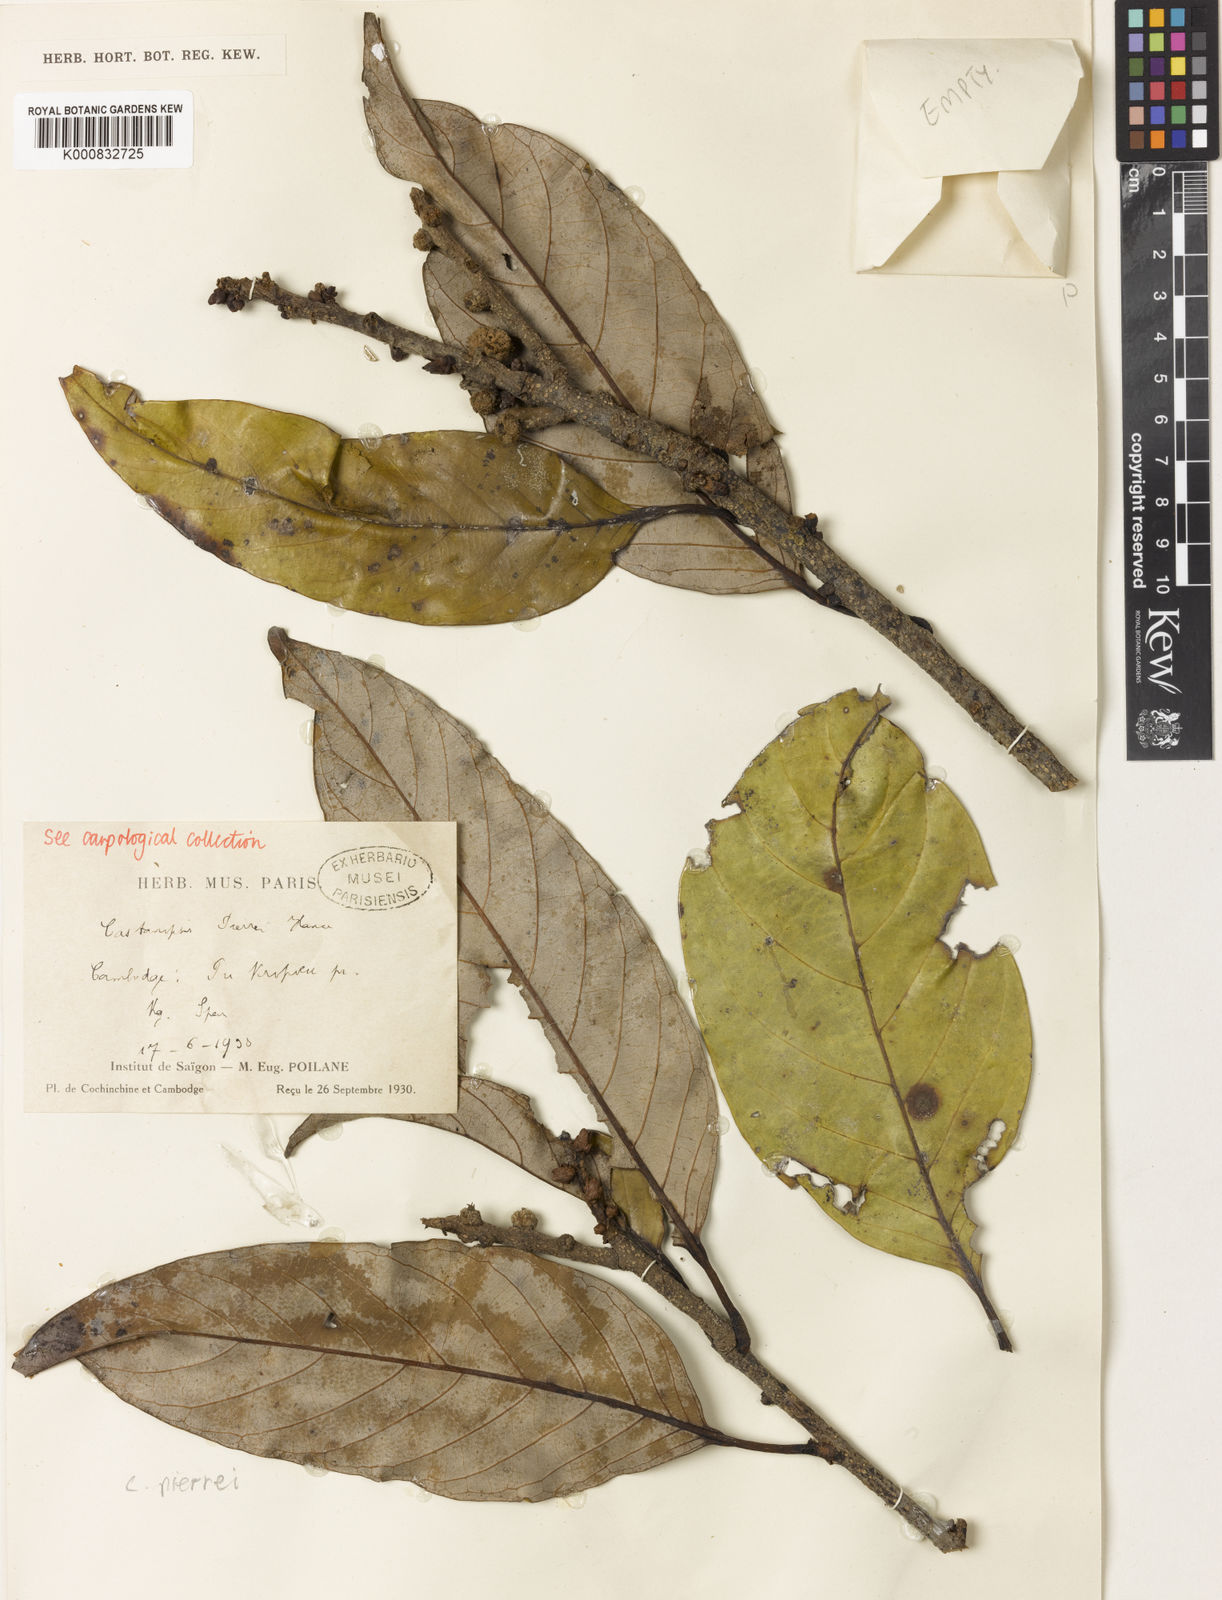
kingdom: Plantae
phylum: Tracheophyta
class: Magnoliopsida
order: Fagales
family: Fagaceae
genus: Castanopsis
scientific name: Castanopsis pierrei
